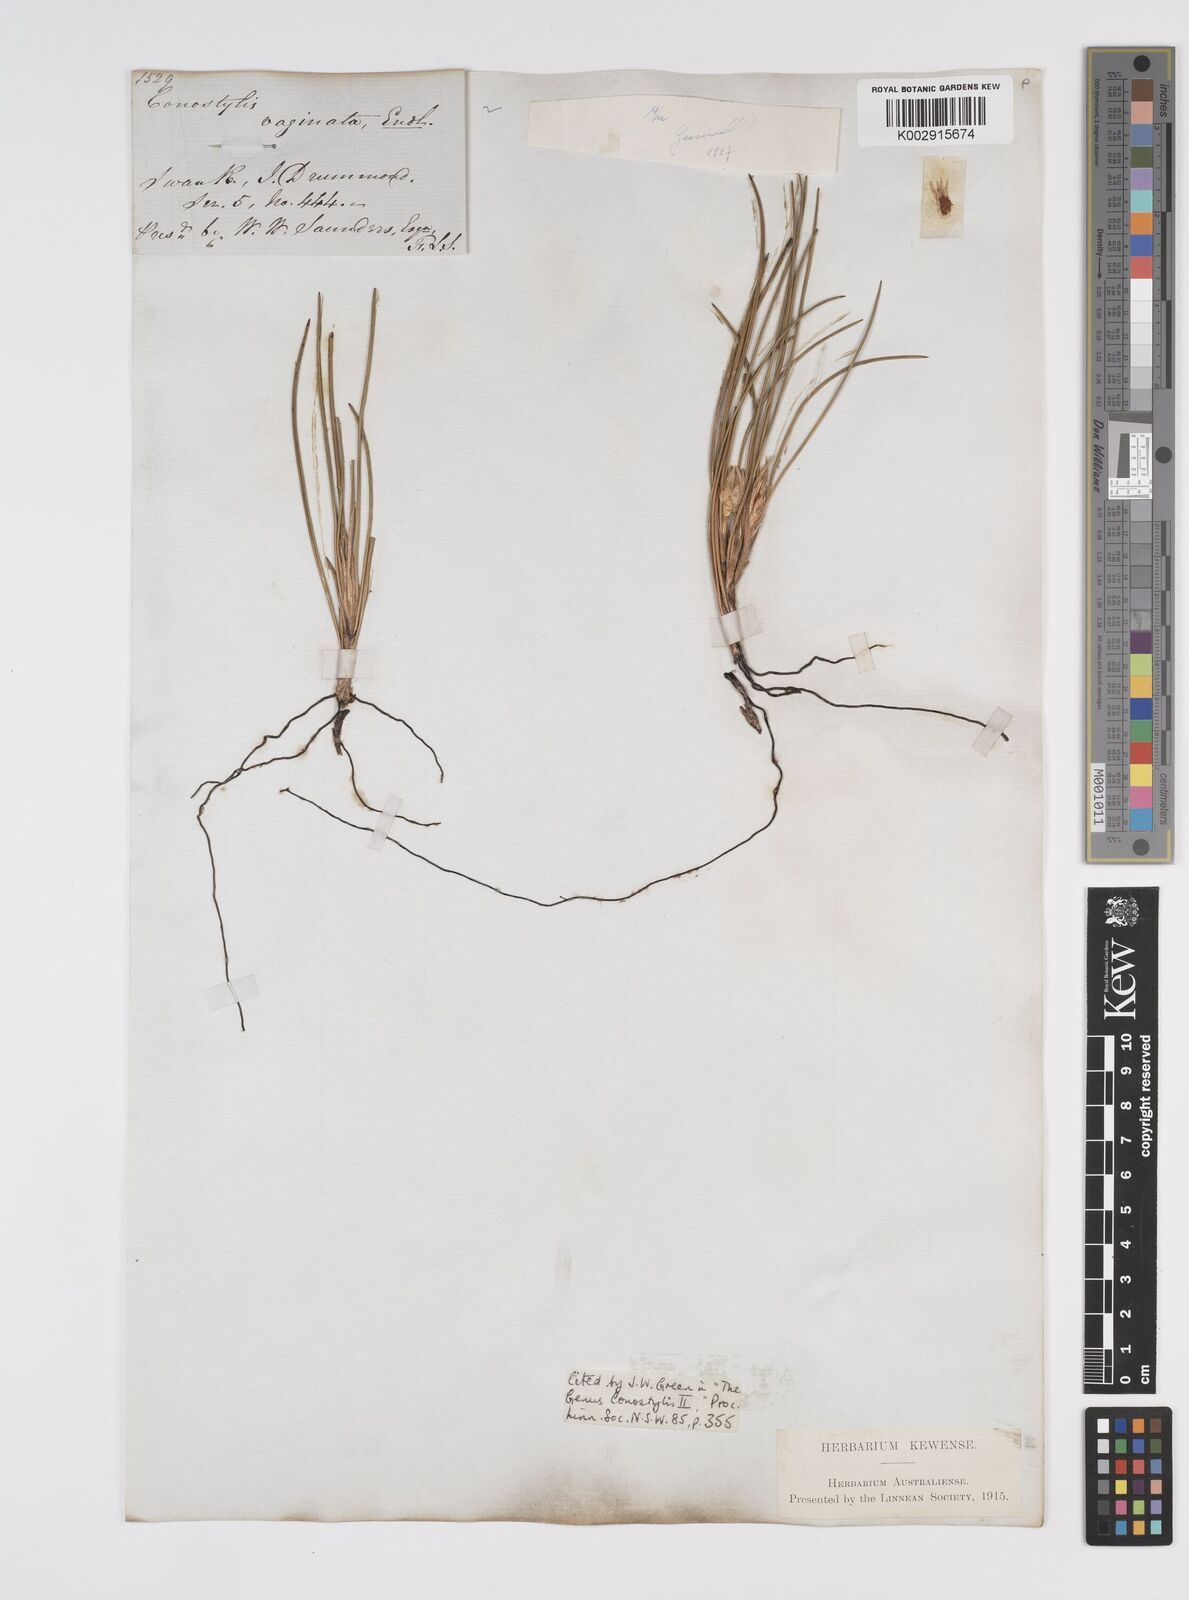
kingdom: Plantae
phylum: Tracheophyta
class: Liliopsida
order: Commelinales
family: Haemodoraceae
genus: Conostylis
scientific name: Conostylis vaginata
